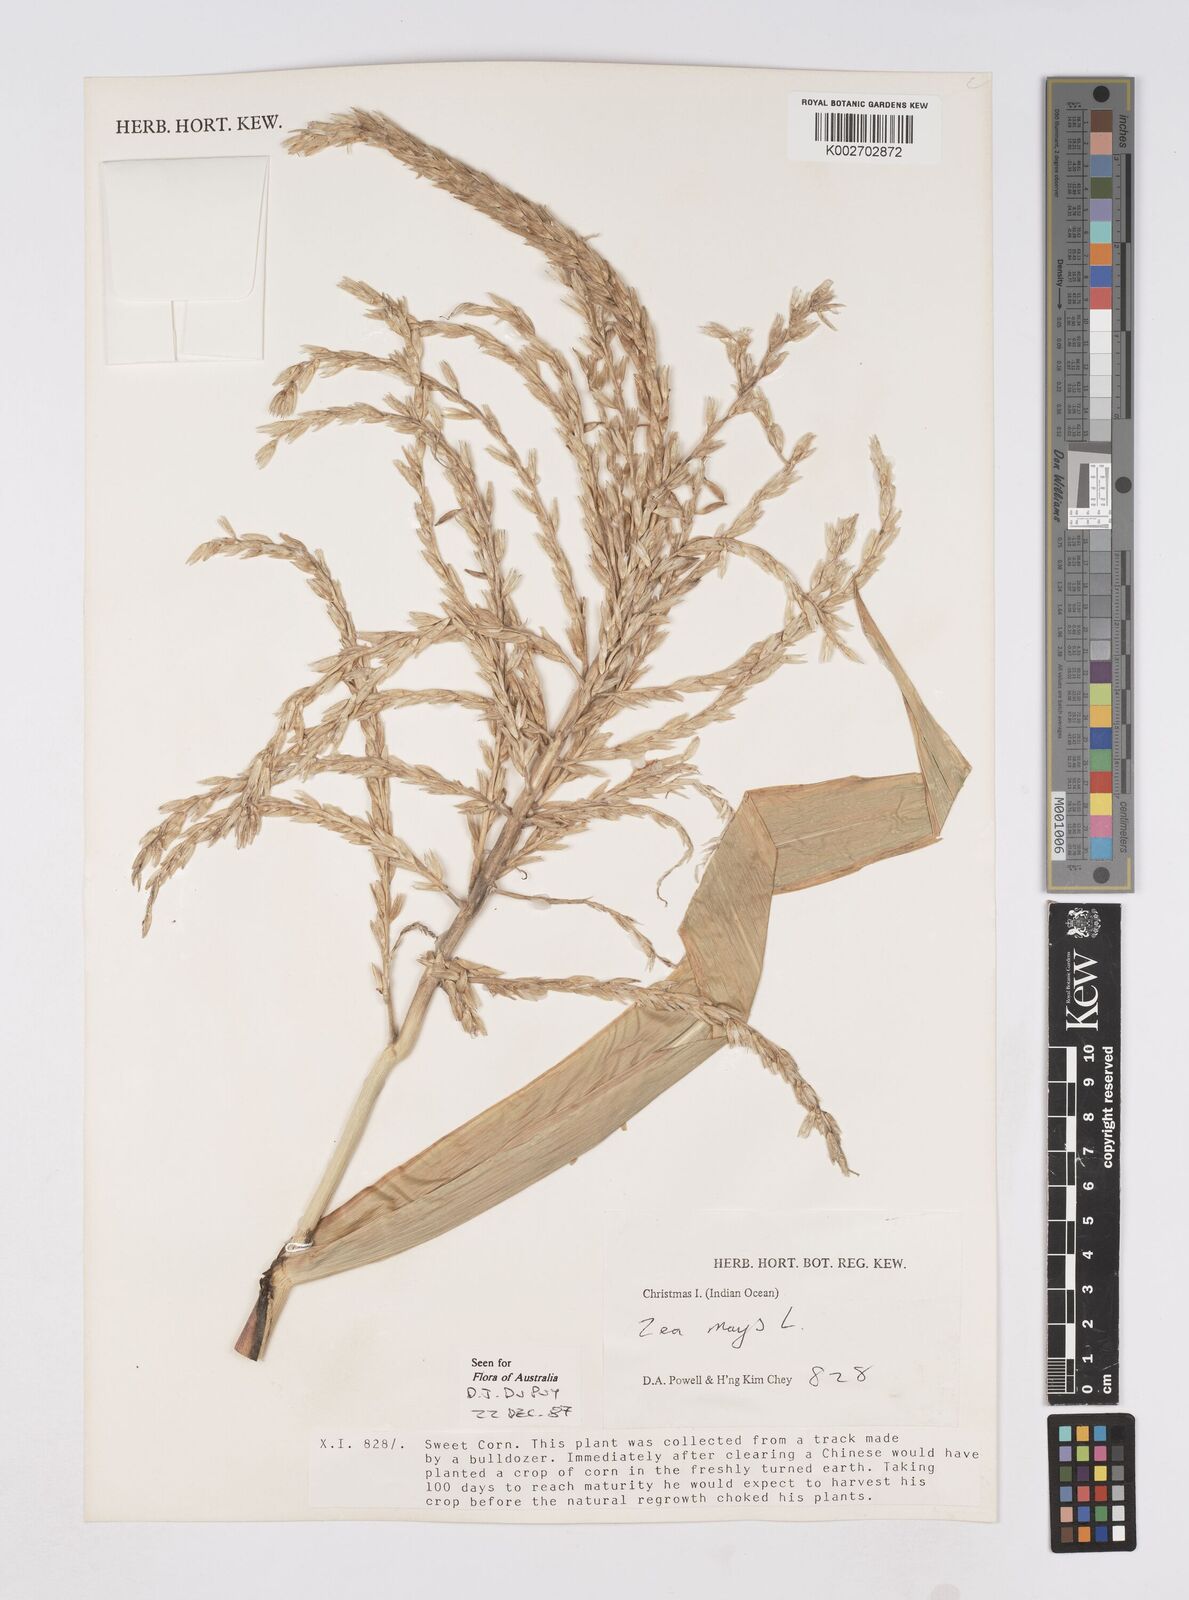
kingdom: Plantae
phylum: Tracheophyta
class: Liliopsida
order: Poales
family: Poaceae
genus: Zea
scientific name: Zea mays
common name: Maize
